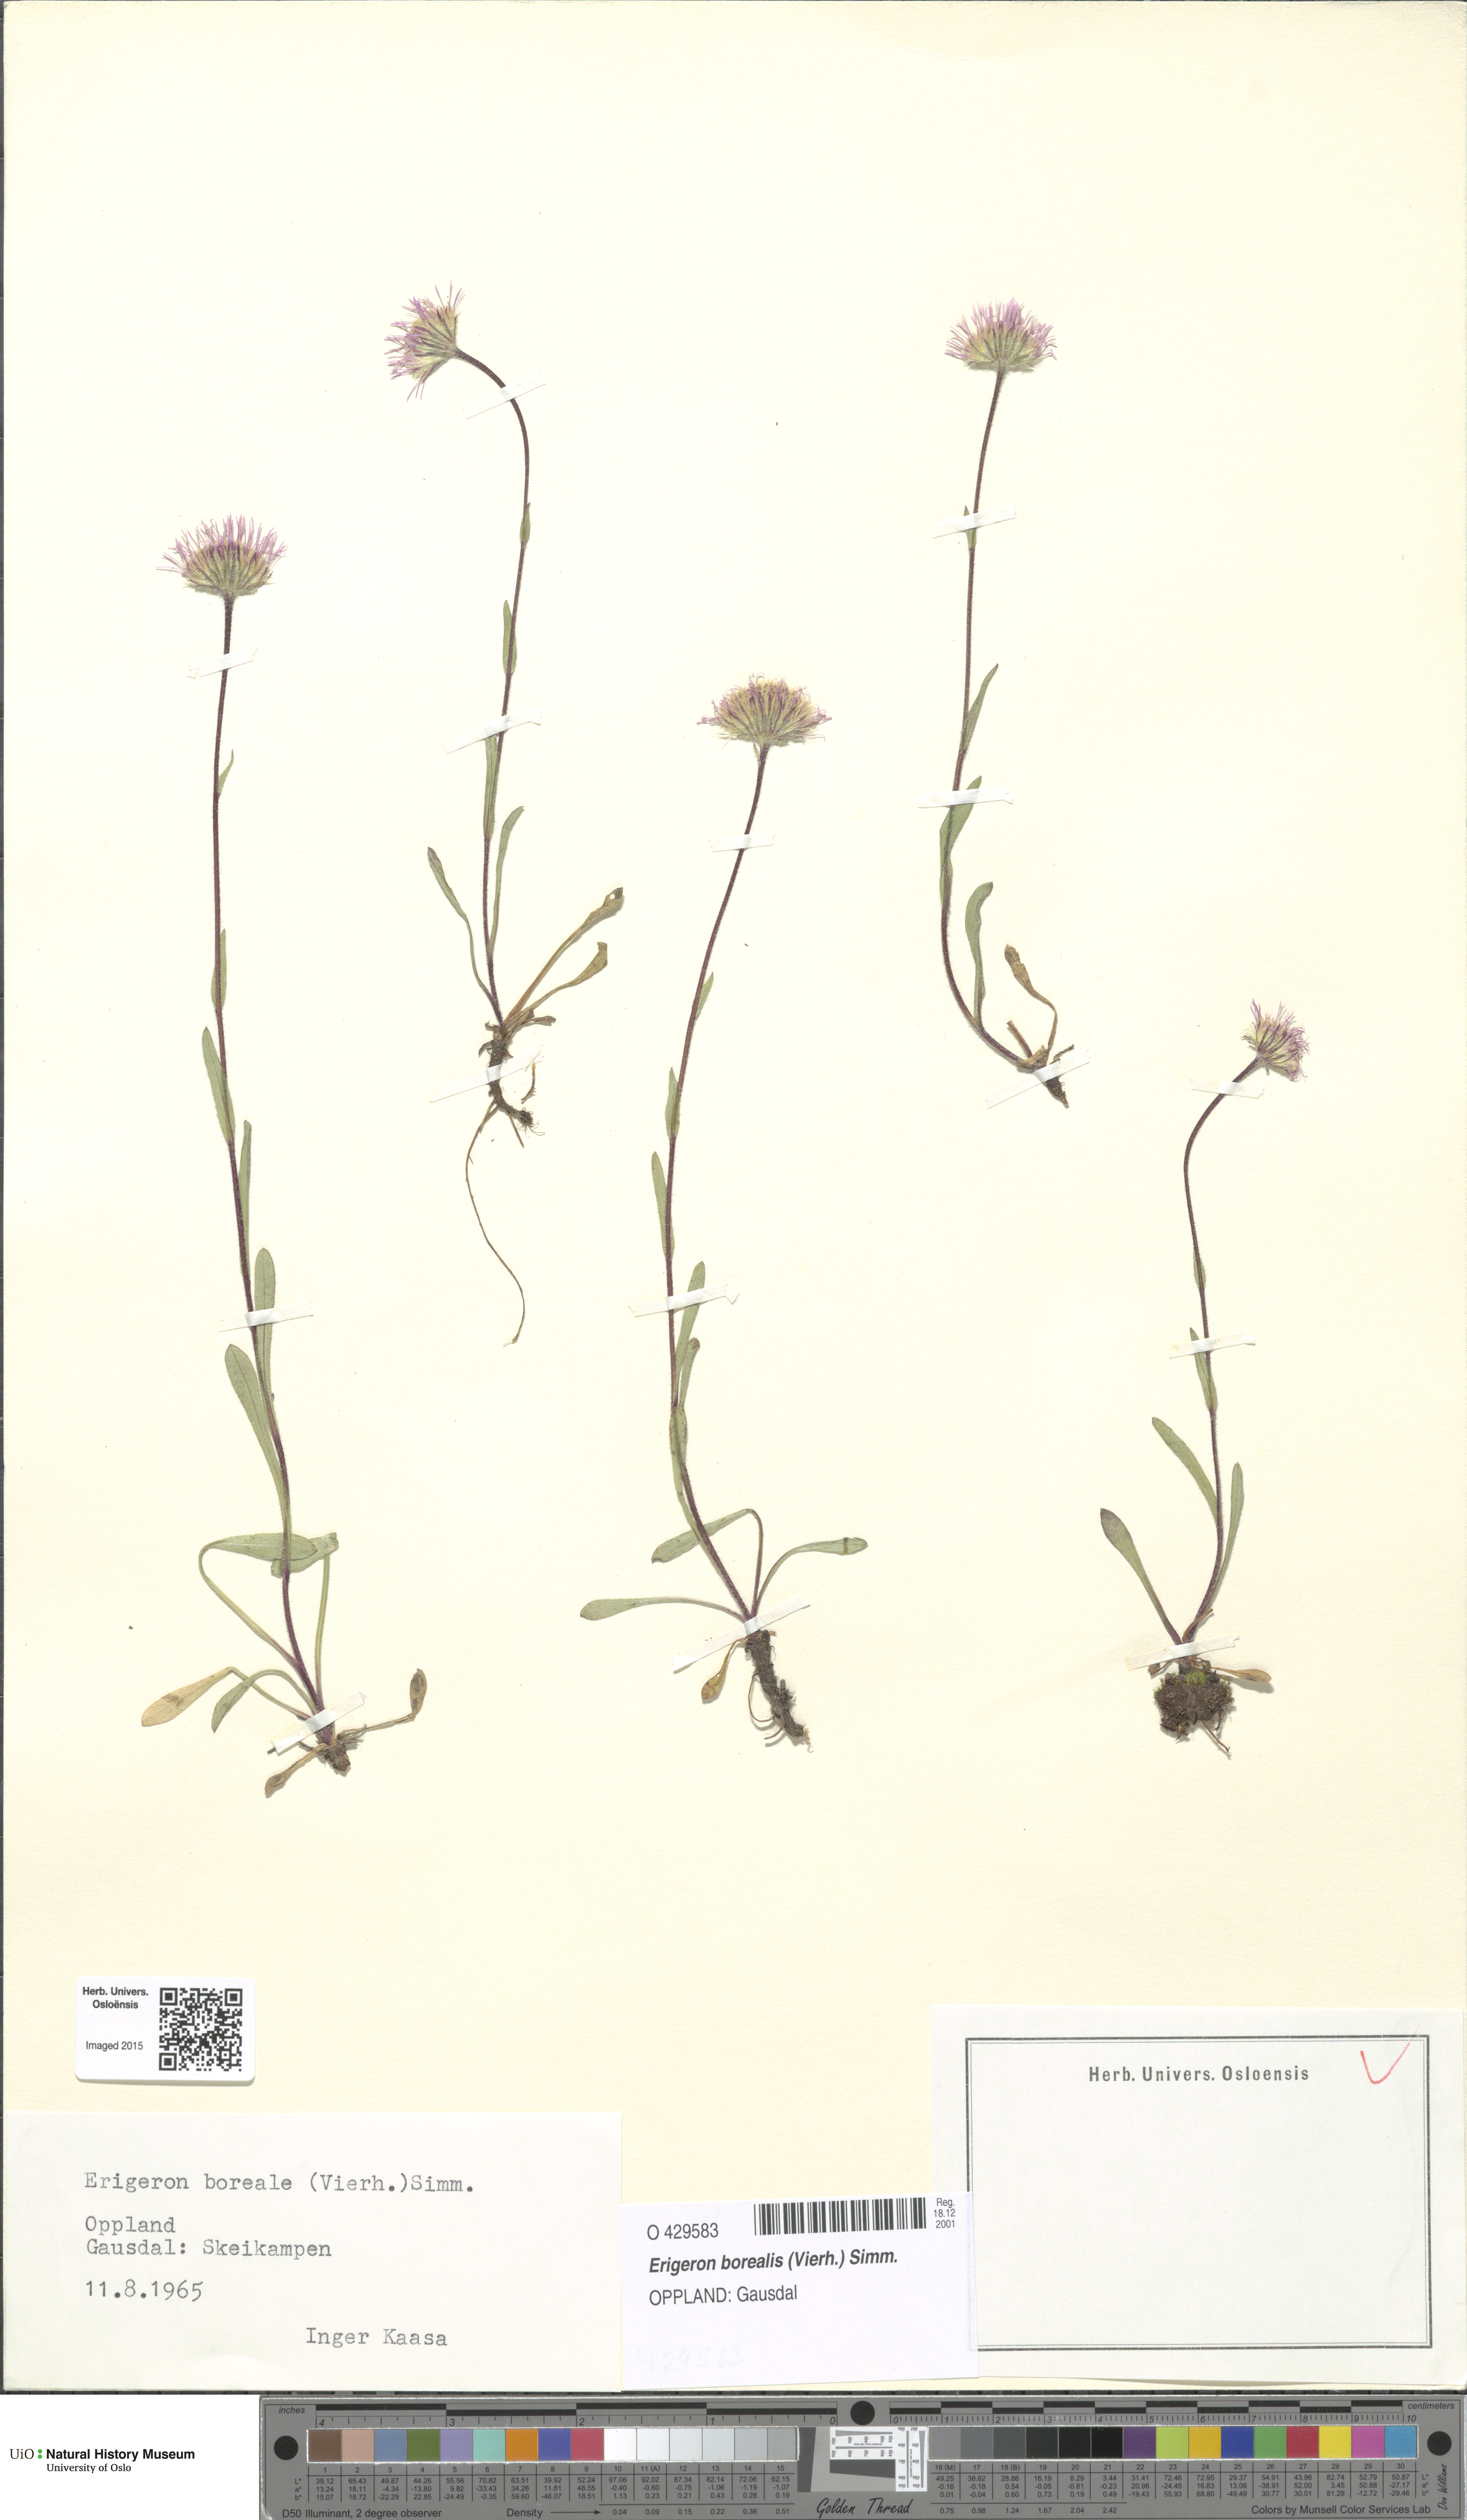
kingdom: Plantae
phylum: Tracheophyta
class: Magnoliopsida
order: Asterales
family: Asteraceae
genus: Erigeron
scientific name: Erigeron borealis
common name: Alpine fleabane
